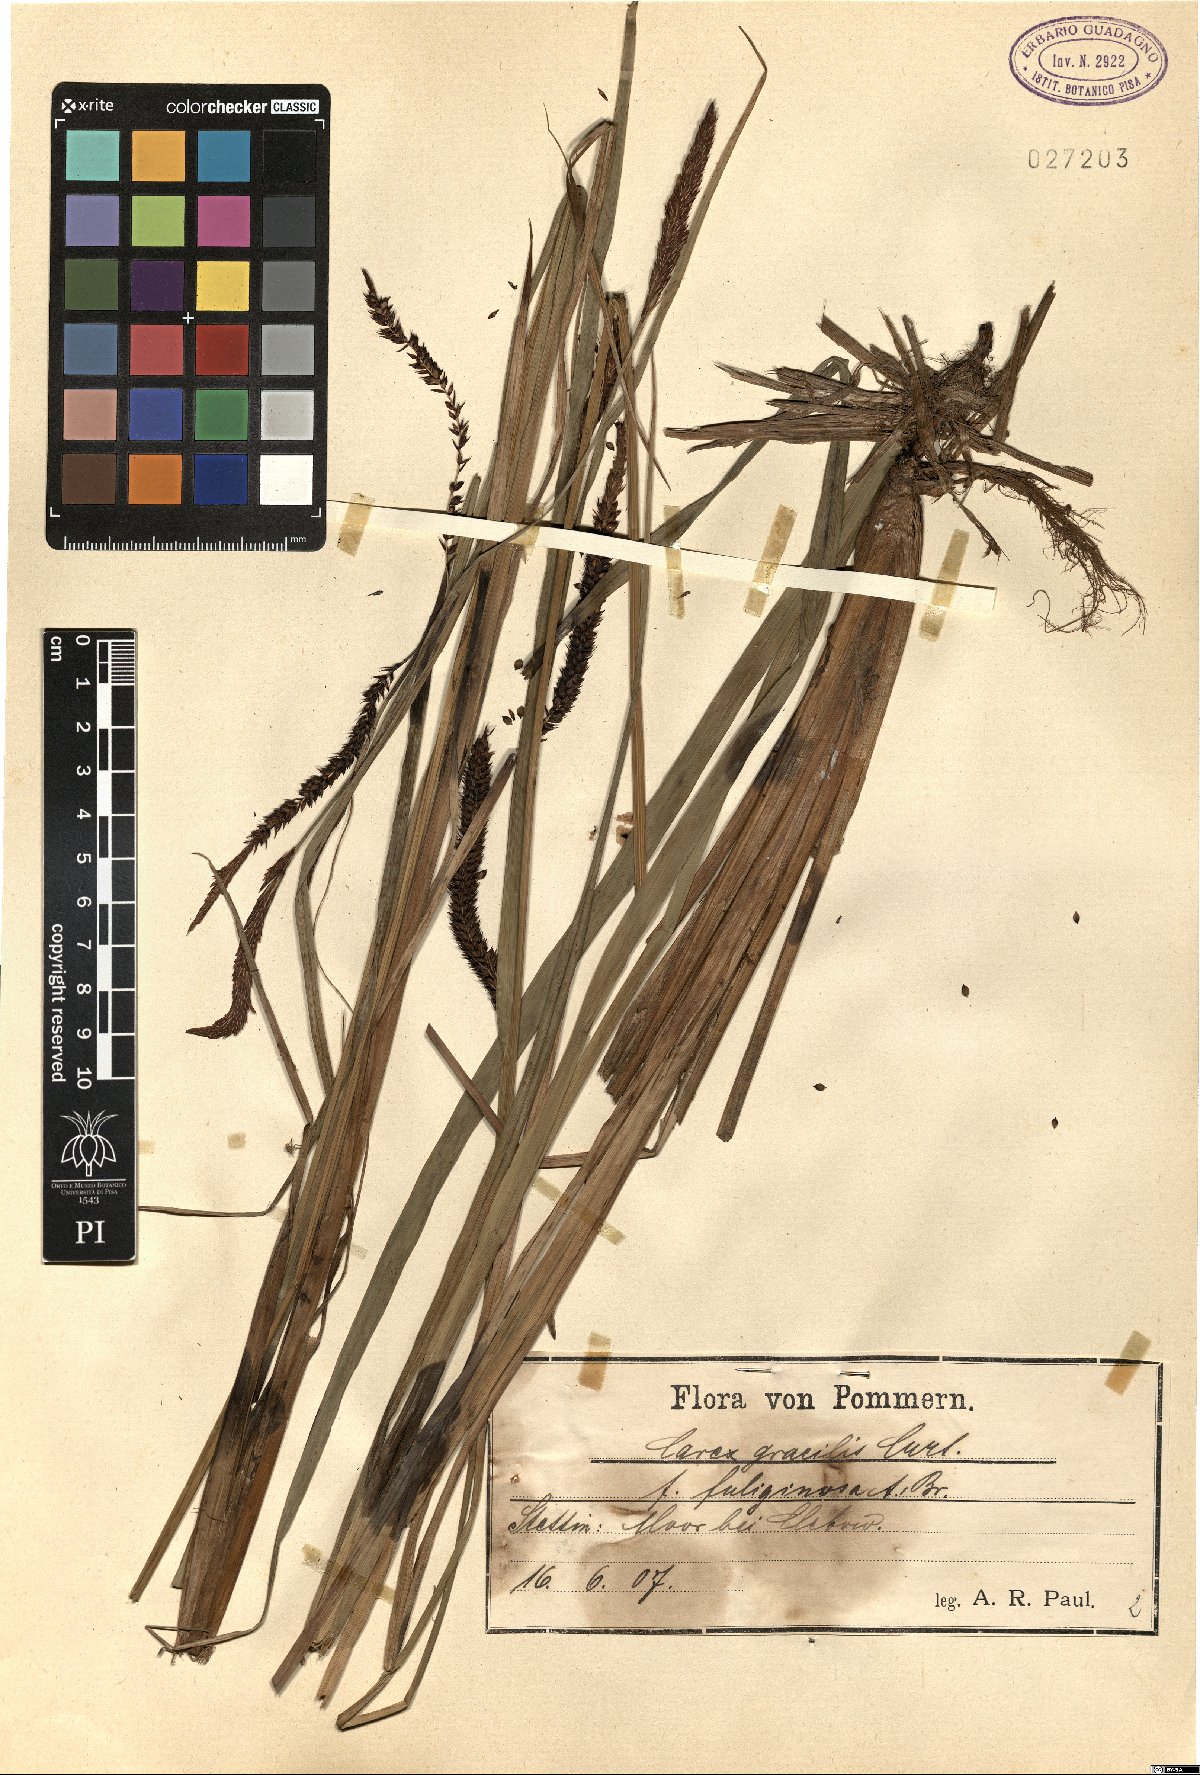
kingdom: Plantae
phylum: Tracheophyta
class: Liliopsida
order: Poales
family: Cyperaceae
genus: Carex
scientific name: Carex acuta
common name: Slender tufted-sedge
